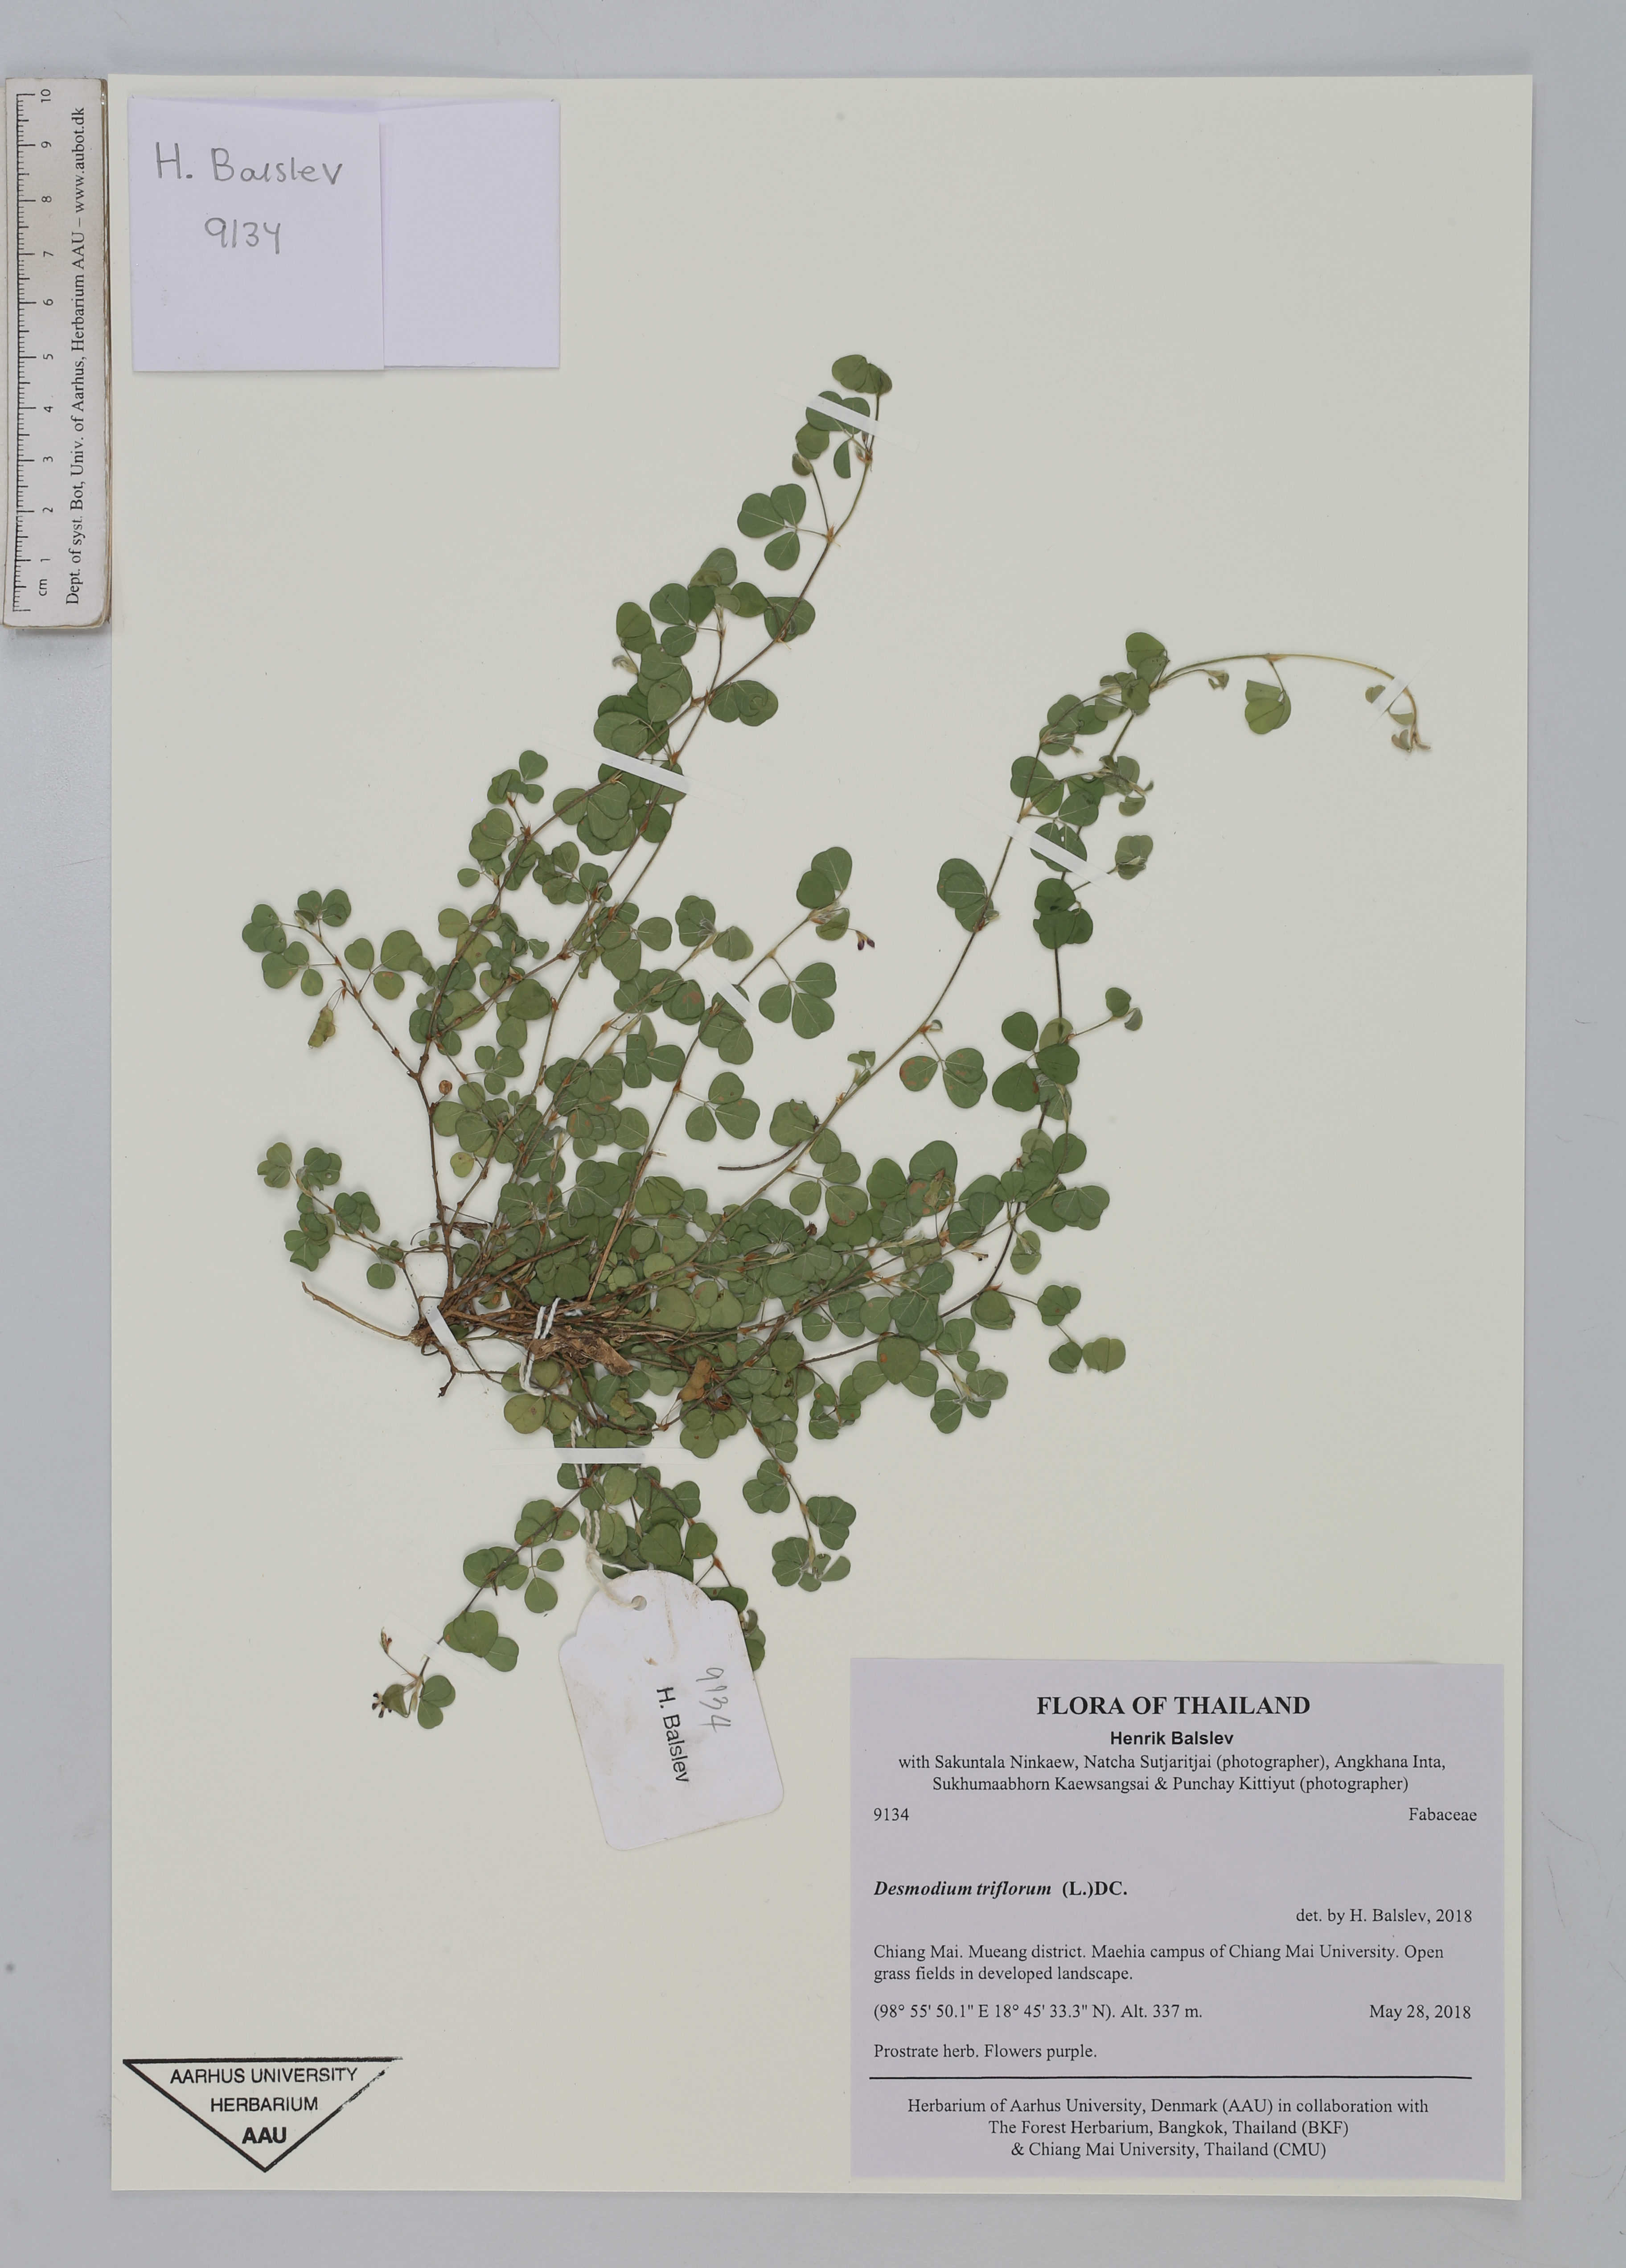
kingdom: Plantae
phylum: Tracheophyta
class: Magnoliopsida
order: Fabales
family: Fabaceae
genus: Grona
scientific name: Grona triflora
